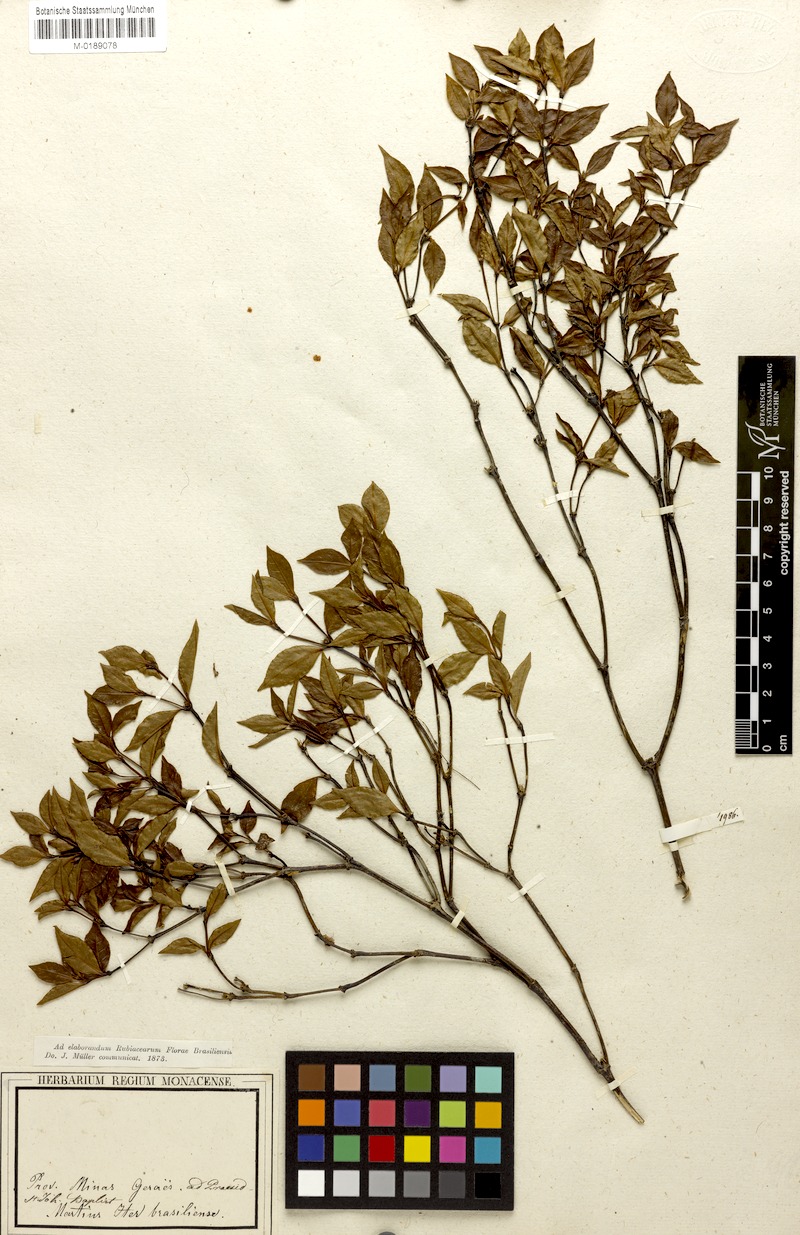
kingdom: Plantae
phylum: Tracheophyta
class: Magnoliopsida
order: Gentianales
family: Rubiaceae
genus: Psychotria
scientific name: Psychotria subtriflora
